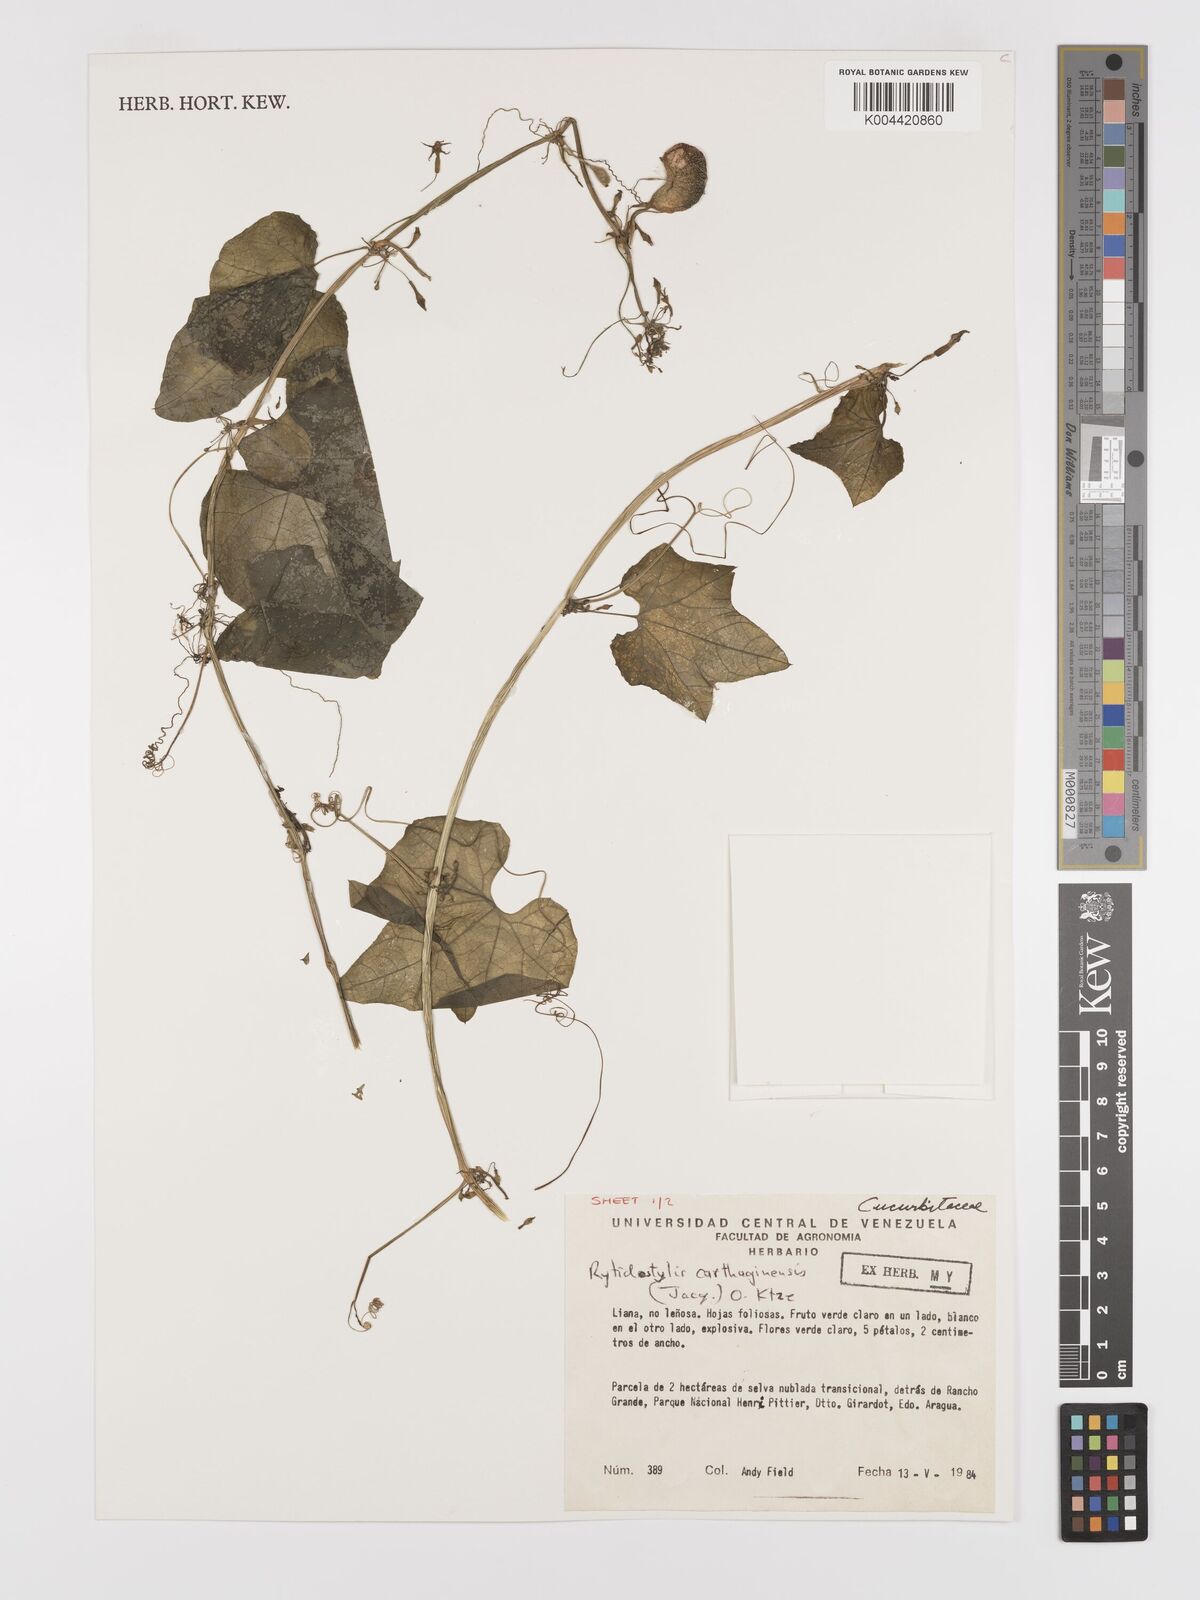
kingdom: Plantae
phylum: Tracheophyta
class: Magnoliopsida
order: Cucurbitales
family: Cucurbitaceae
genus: Cyclanthera
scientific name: Cyclanthera carthagenensis
